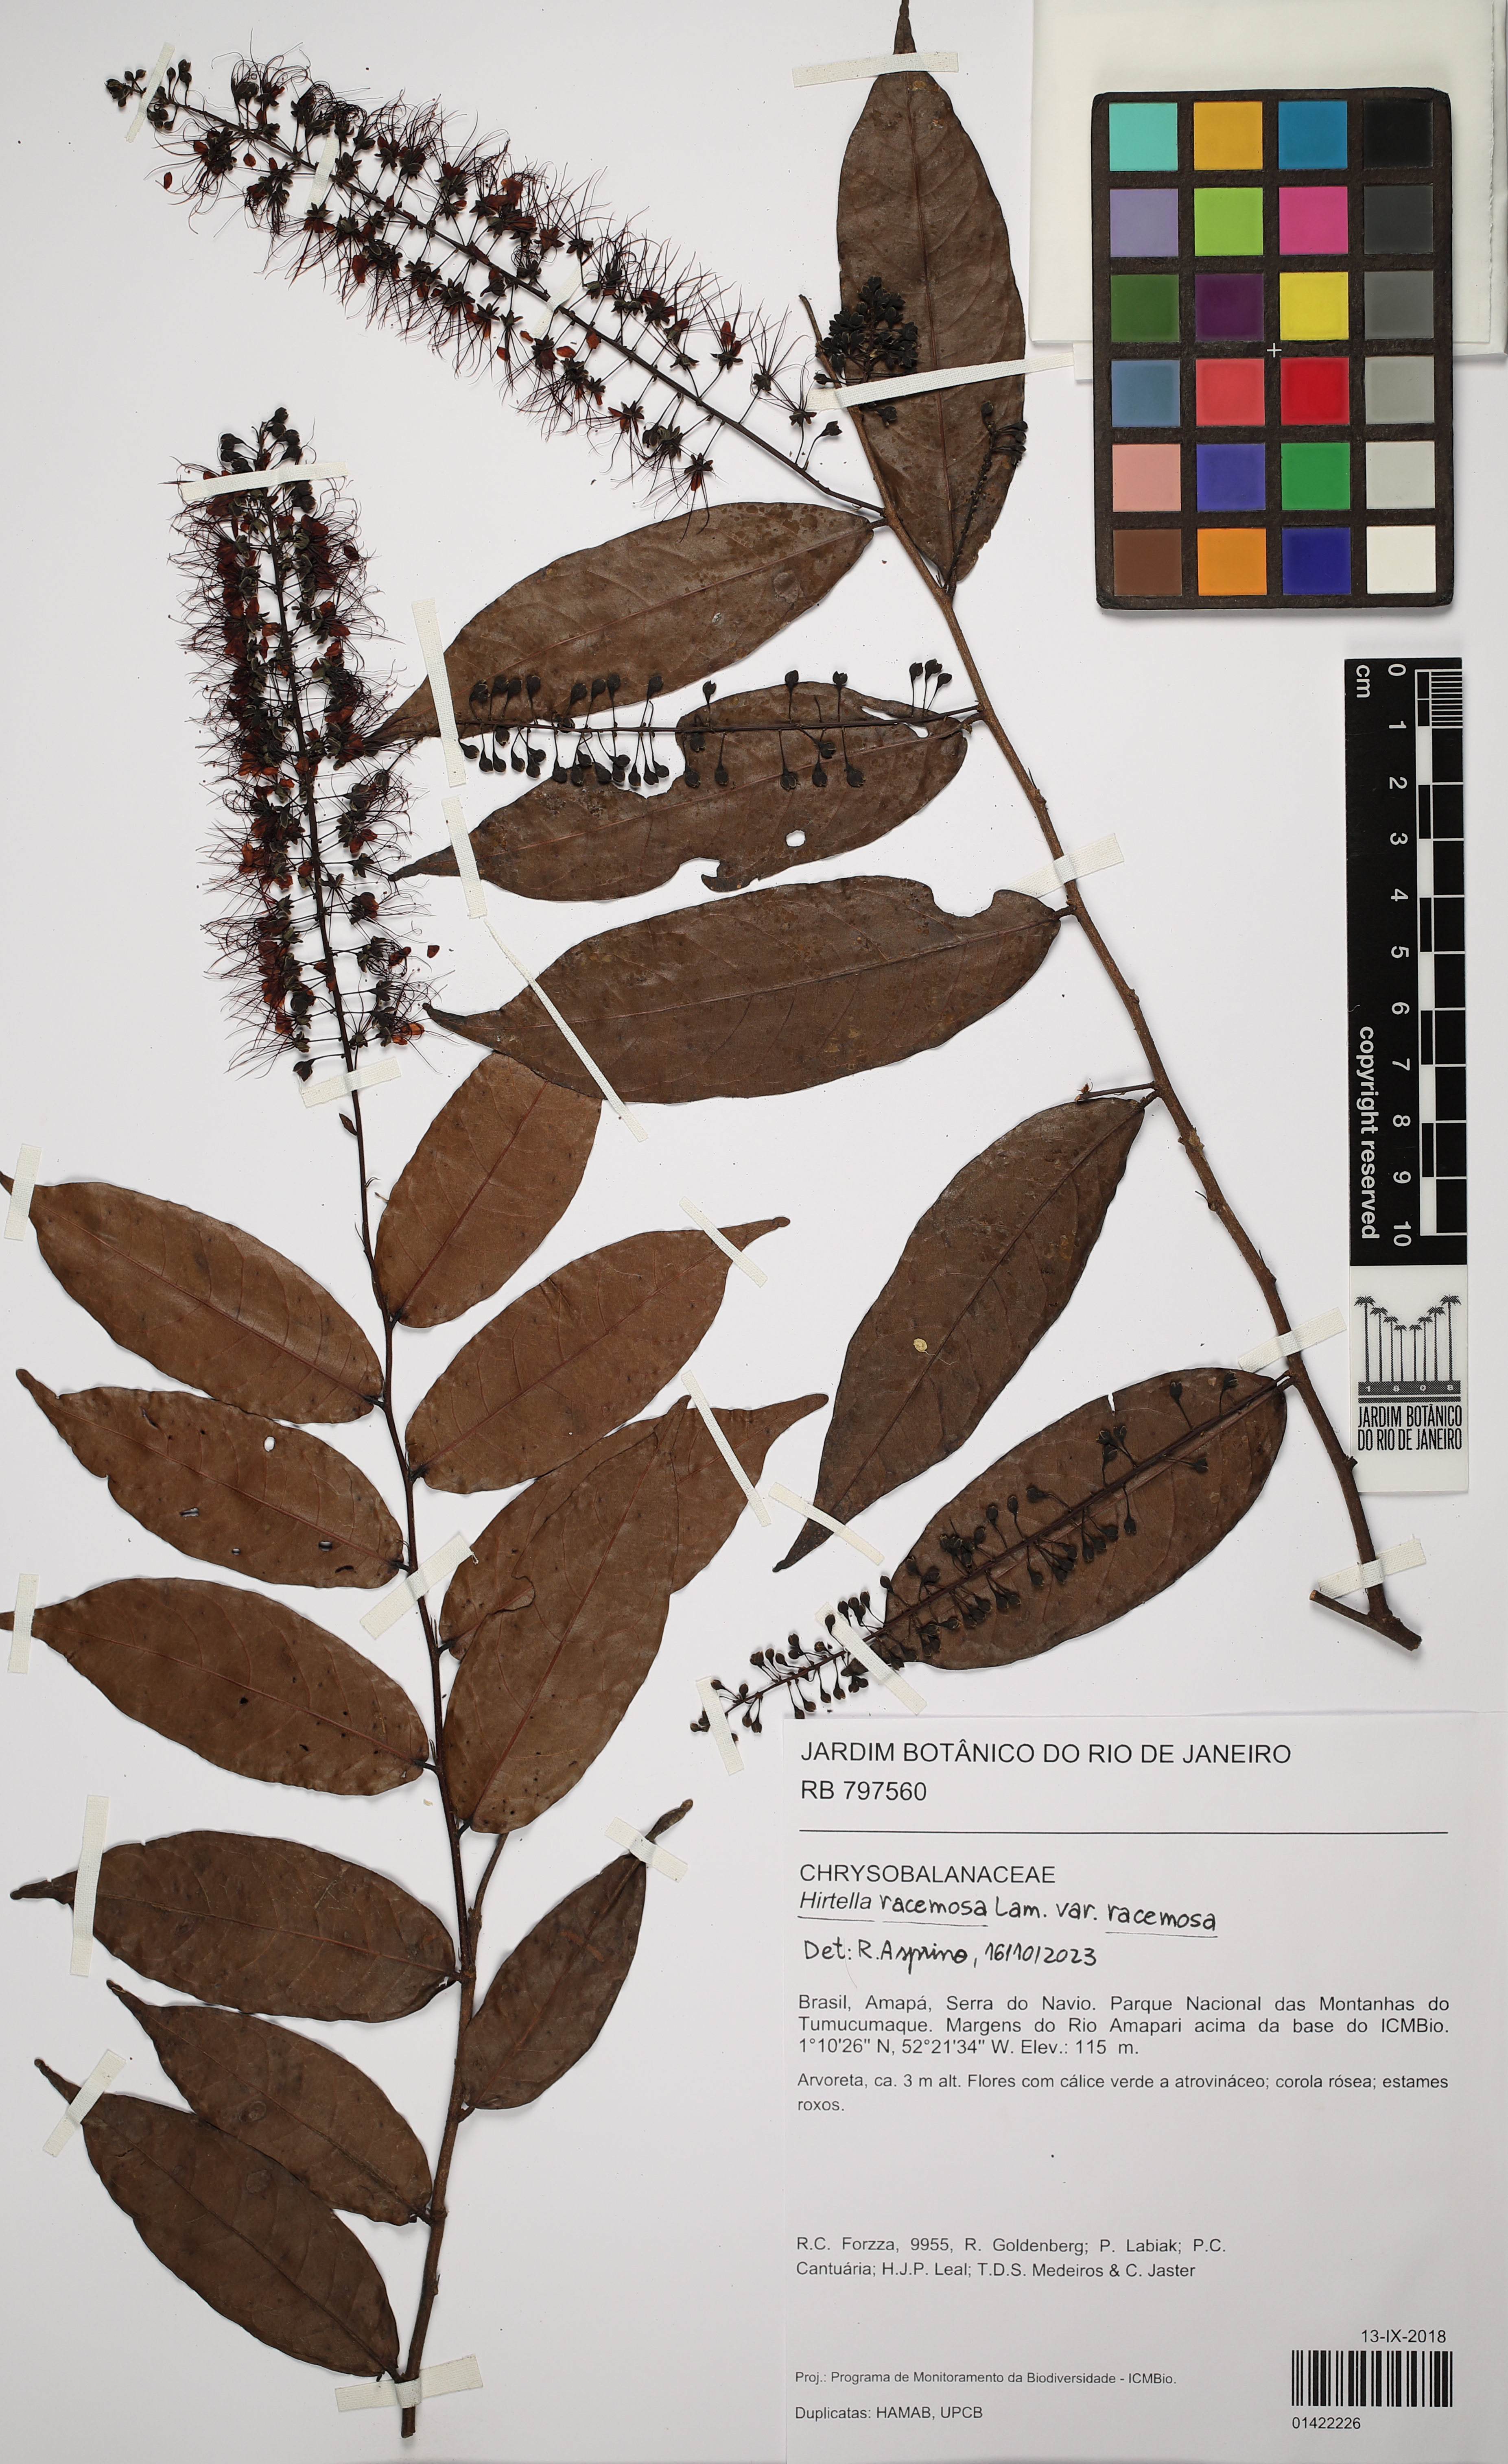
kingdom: Plantae
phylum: Tracheophyta
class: Magnoliopsida
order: Malpighiales
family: Chrysobalanaceae
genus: Hirtella
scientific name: Hirtella racemosa
